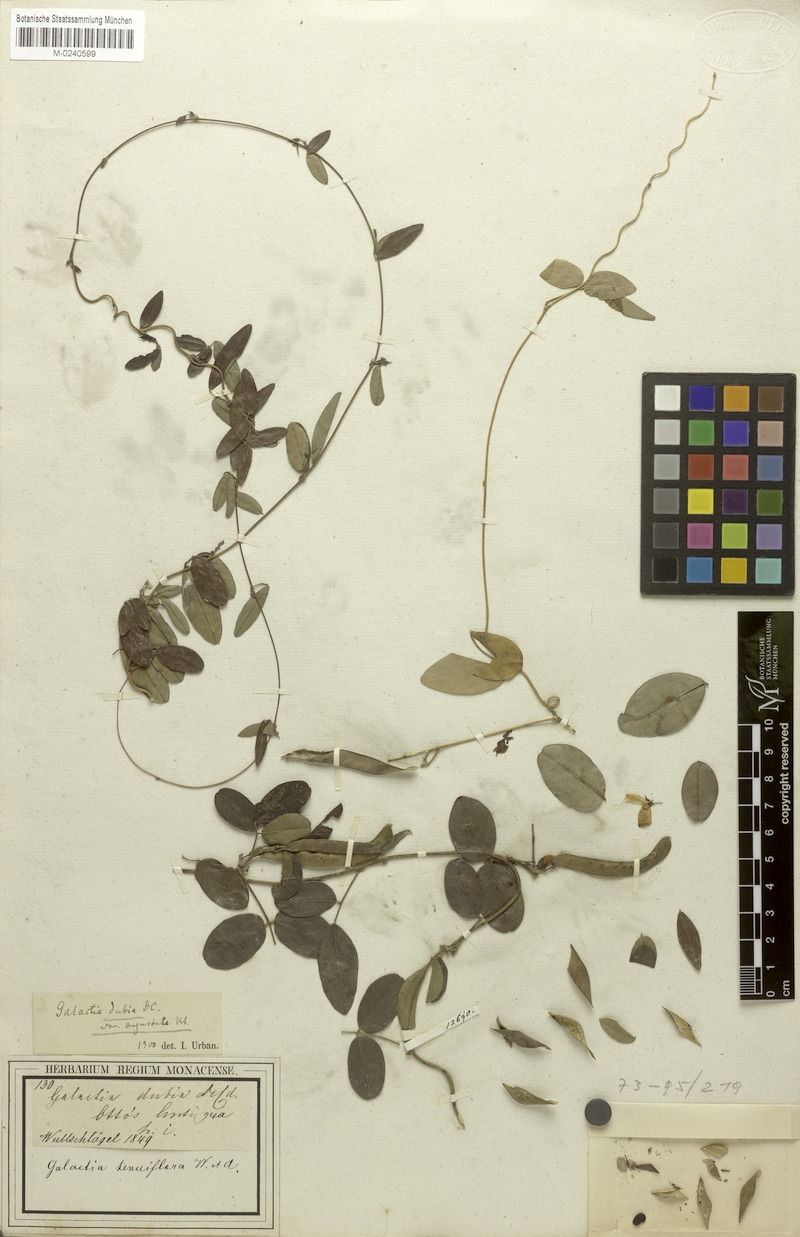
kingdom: Plantae
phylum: Tracheophyta
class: Magnoliopsida
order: Fabales
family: Fabaceae
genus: Galactia
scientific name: Galactia dubia
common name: West indian milkpea
